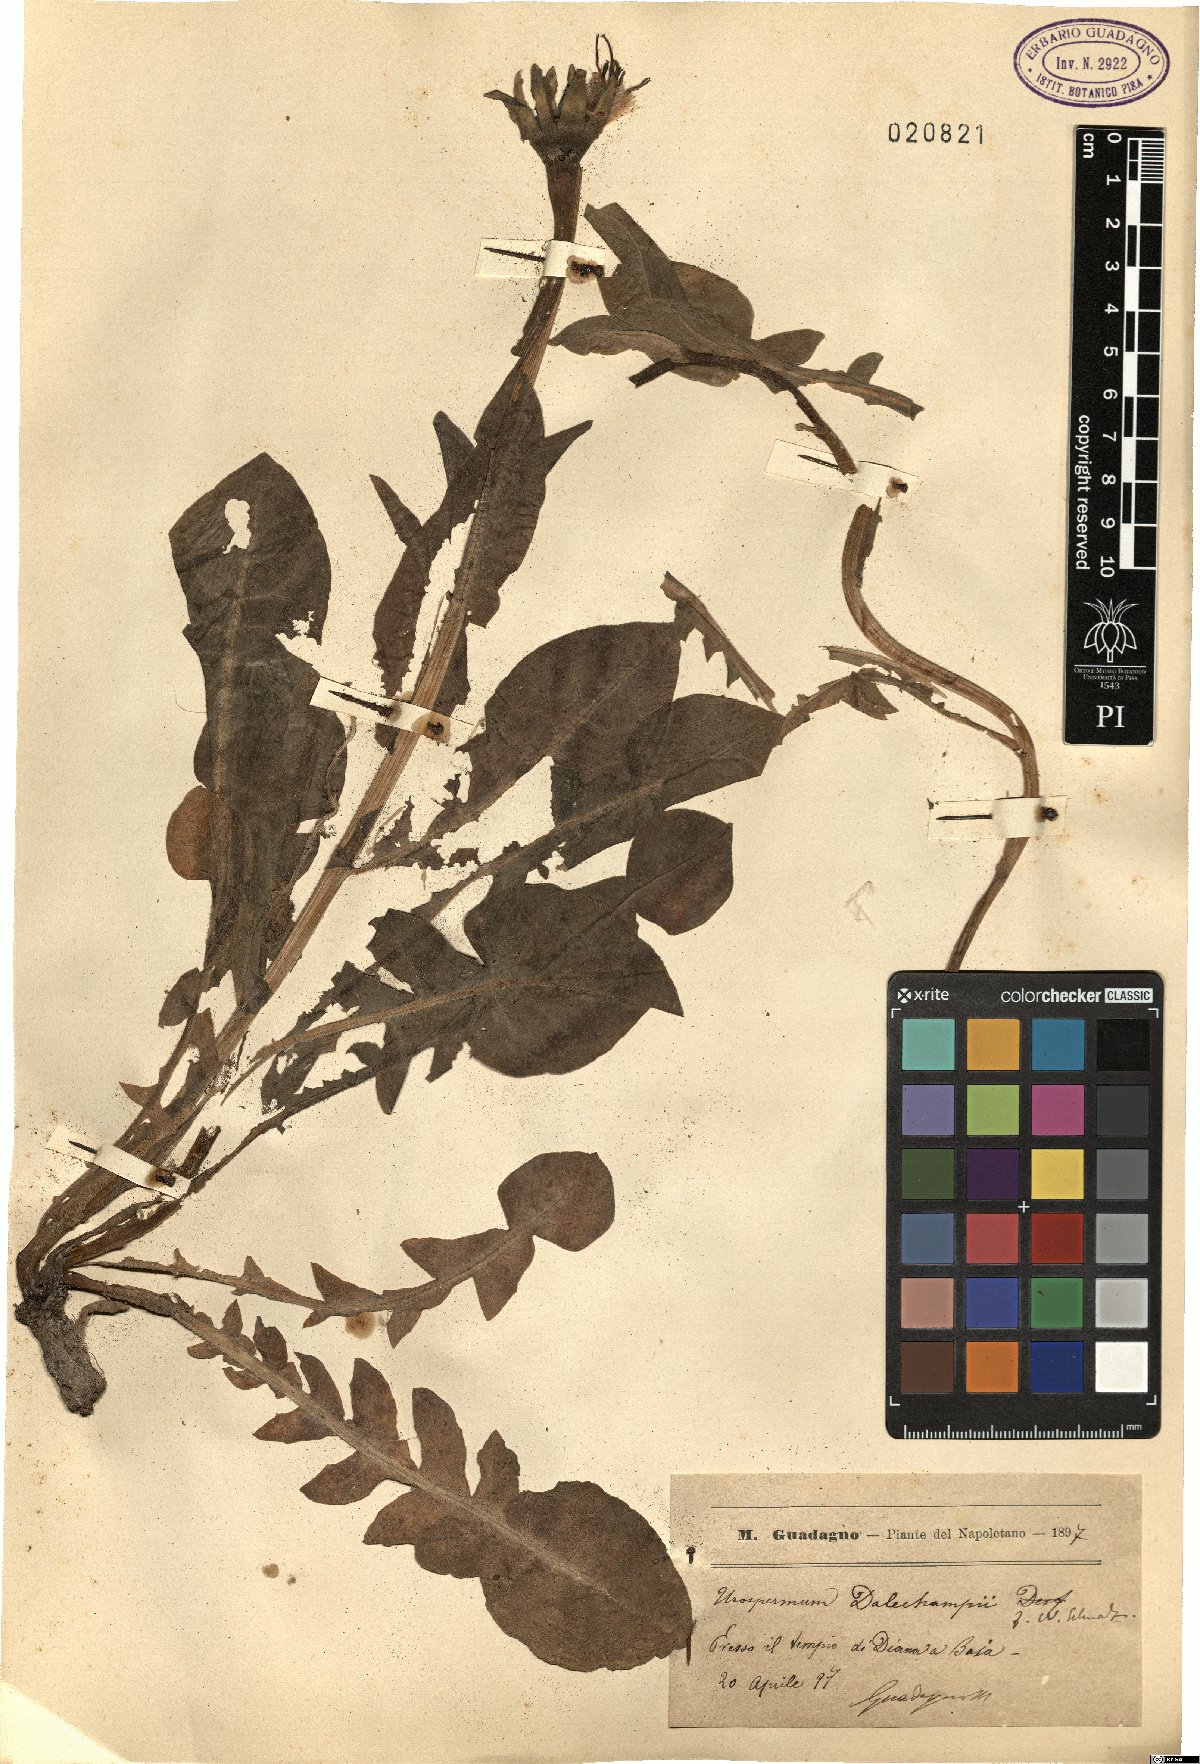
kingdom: Plantae
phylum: Tracheophyta
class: Magnoliopsida
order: Asterales
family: Asteraceae
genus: Urospermum
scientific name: Urospermum dalechampii
